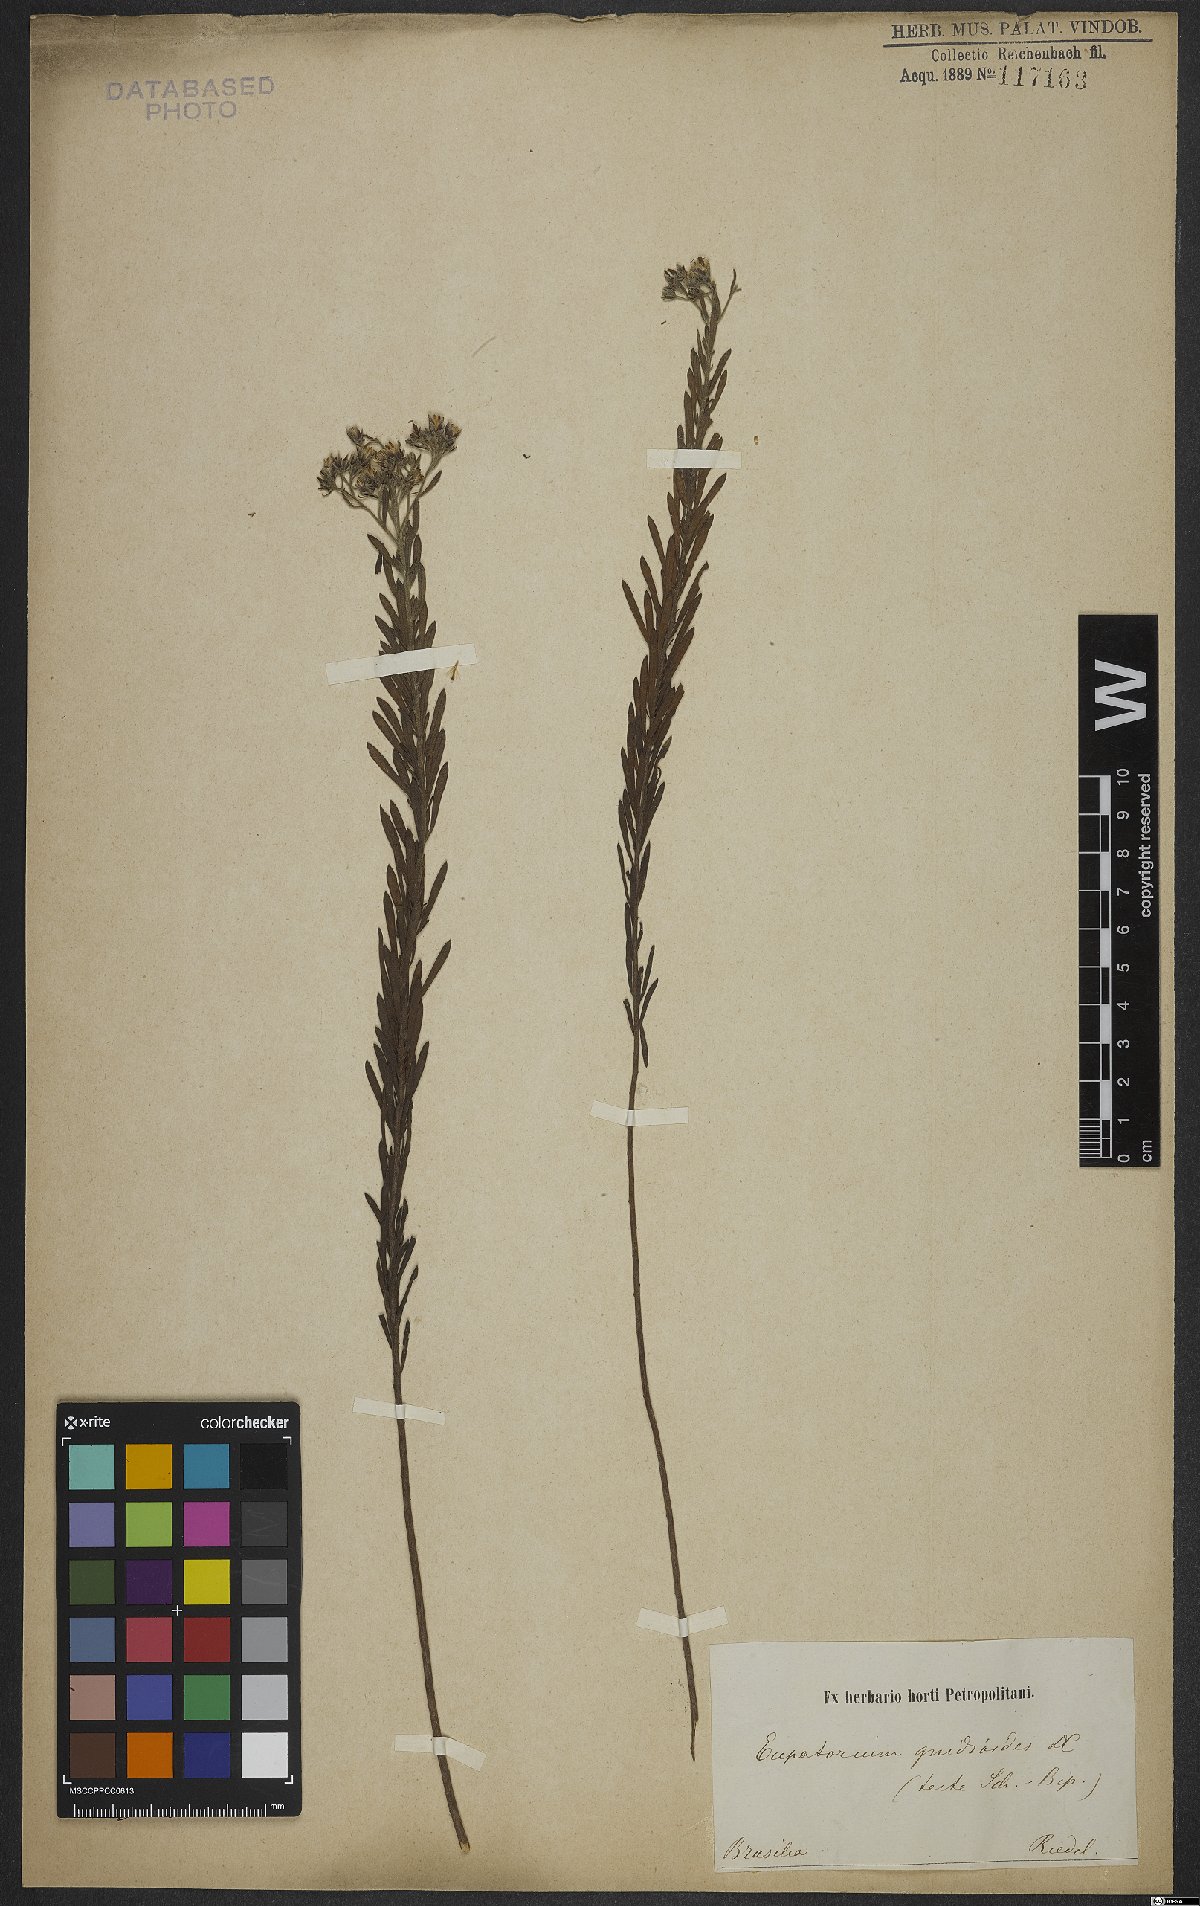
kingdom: Plantae
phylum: Tracheophyta
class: Magnoliopsida
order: Asterales
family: Asteraceae
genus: Disynaphia
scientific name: Disynaphia ligulifolia
